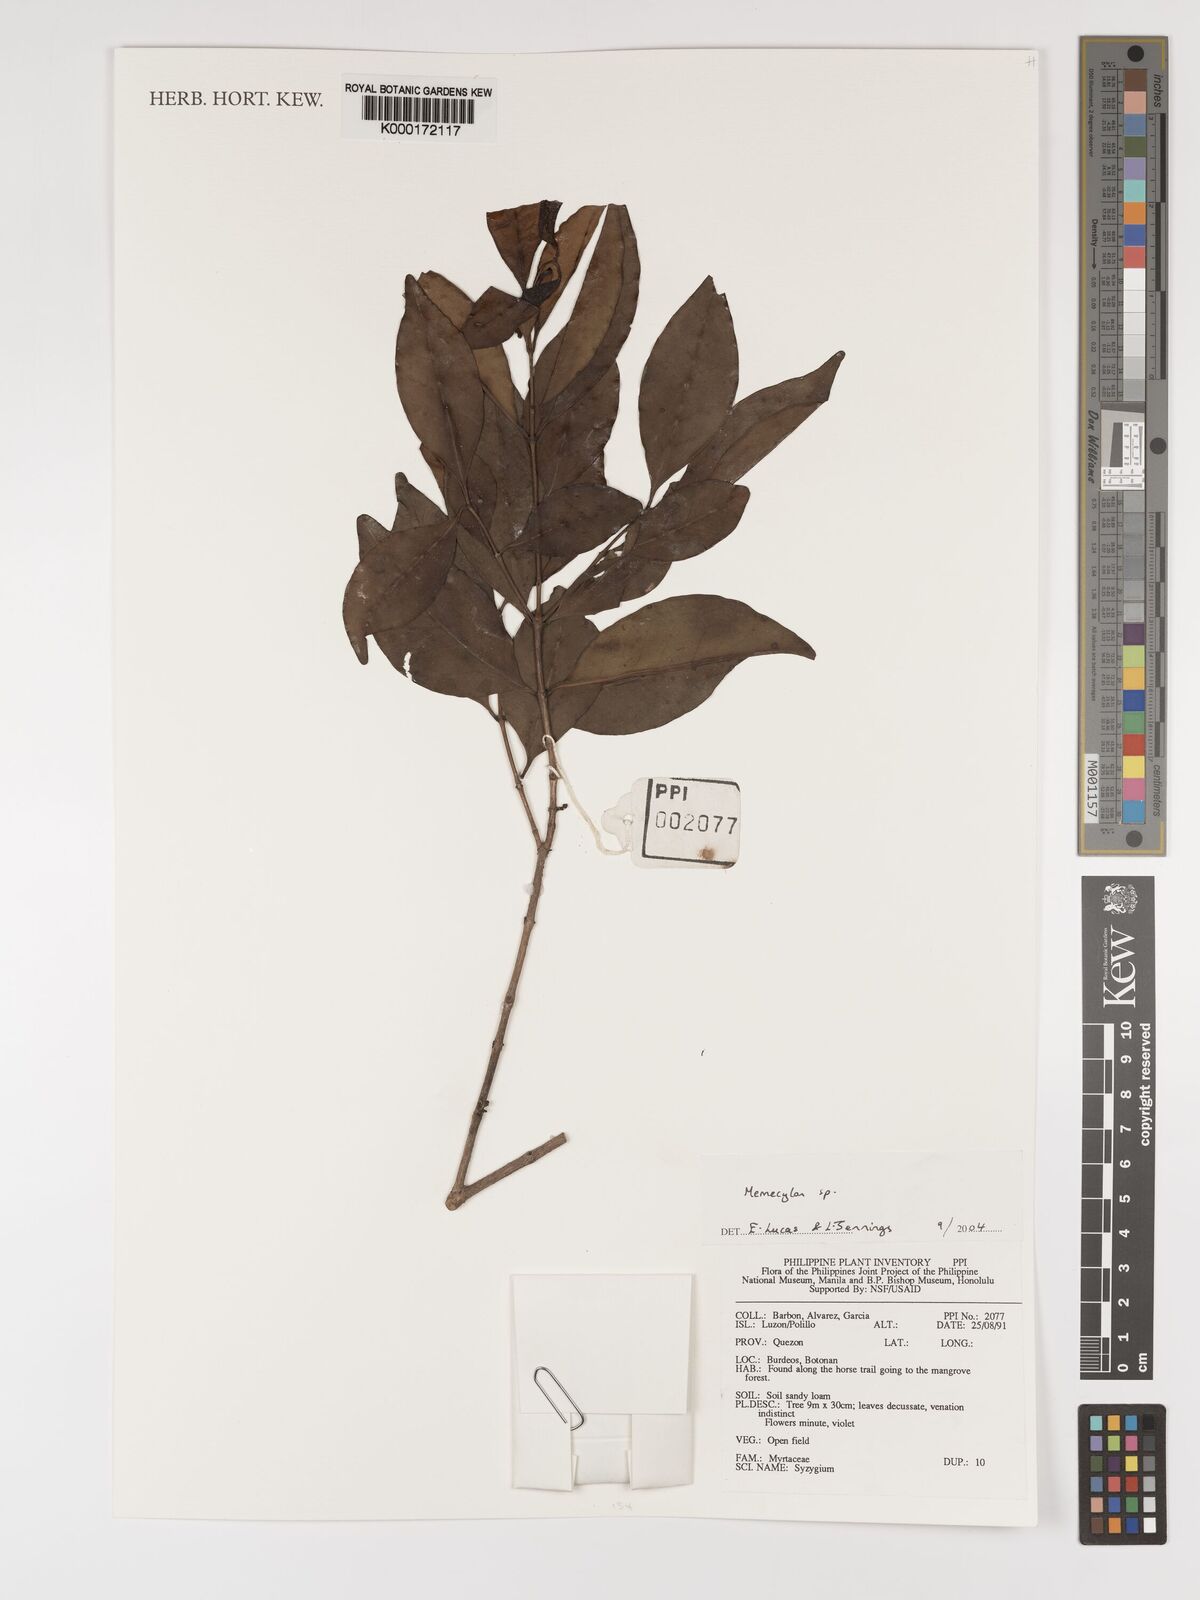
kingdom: Plantae
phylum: Tracheophyta
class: Magnoliopsida
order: Myrtales
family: Melastomataceae
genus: Memecylon
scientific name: Memecylon
